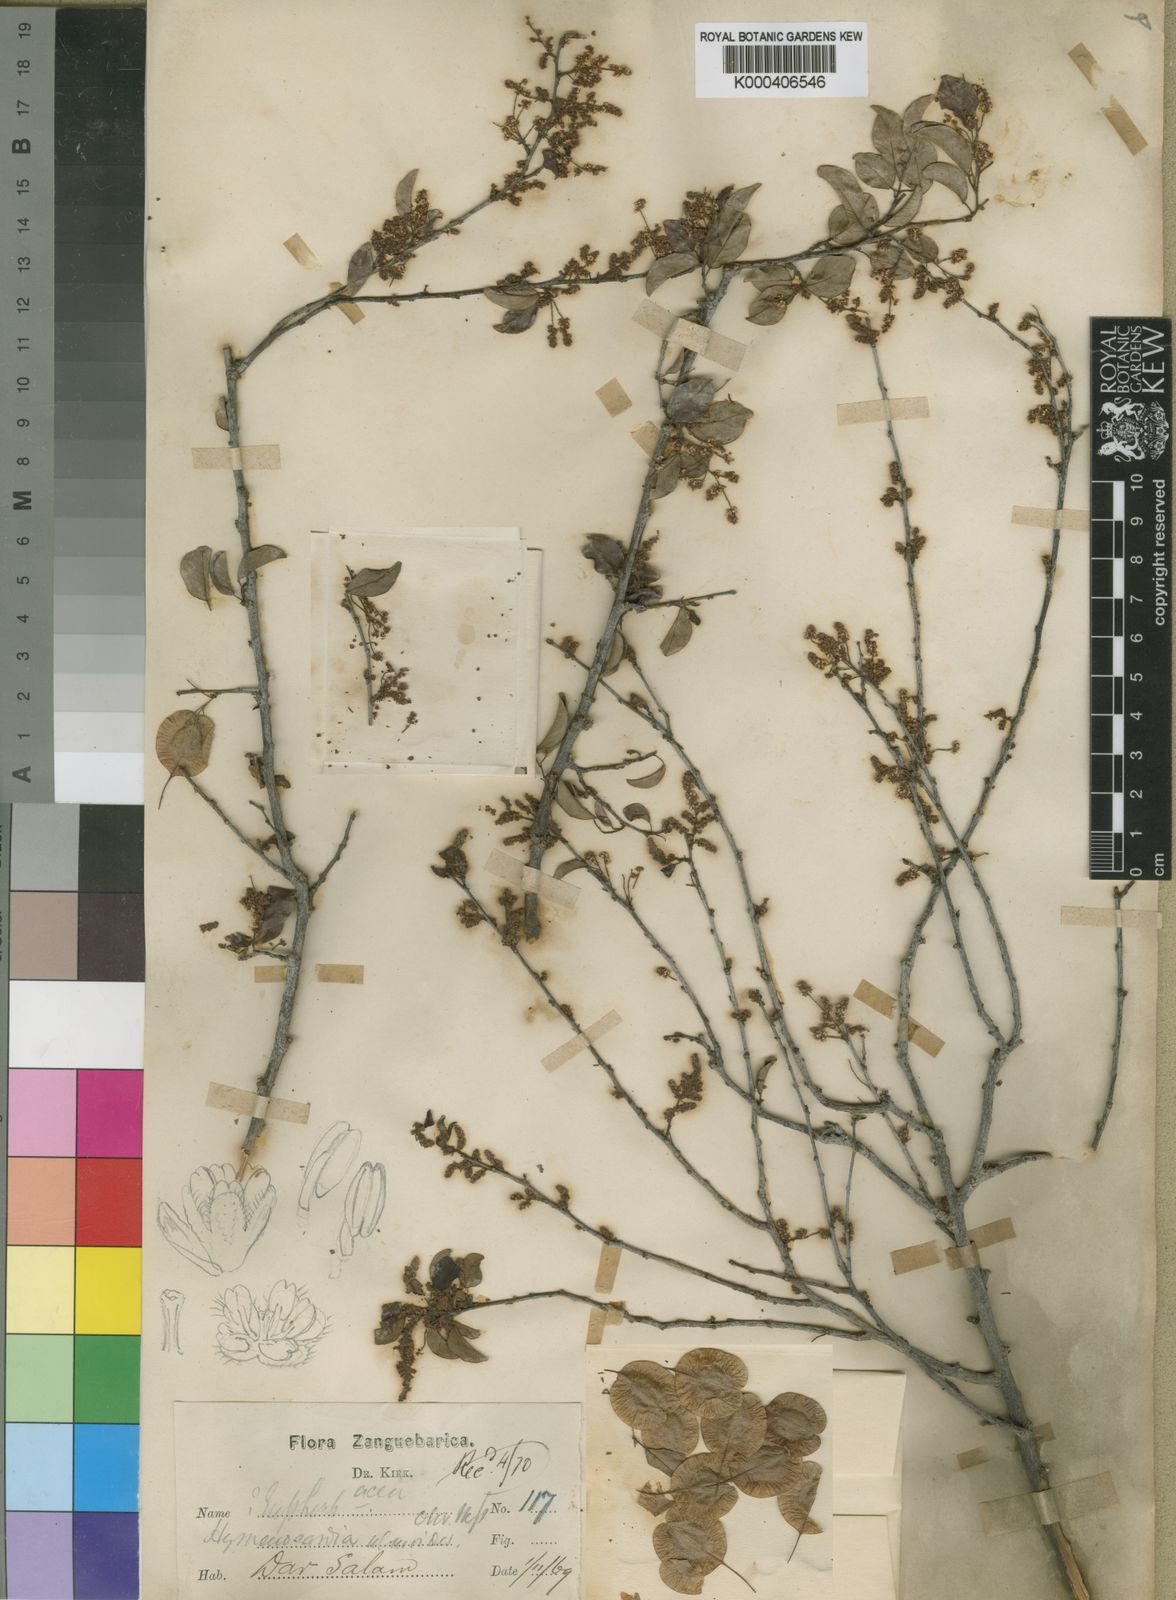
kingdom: Plantae
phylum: Tracheophyta
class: Magnoliopsida
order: Malpighiales
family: Phyllanthaceae
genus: Hymenocardia
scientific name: Hymenocardia ulmoides
